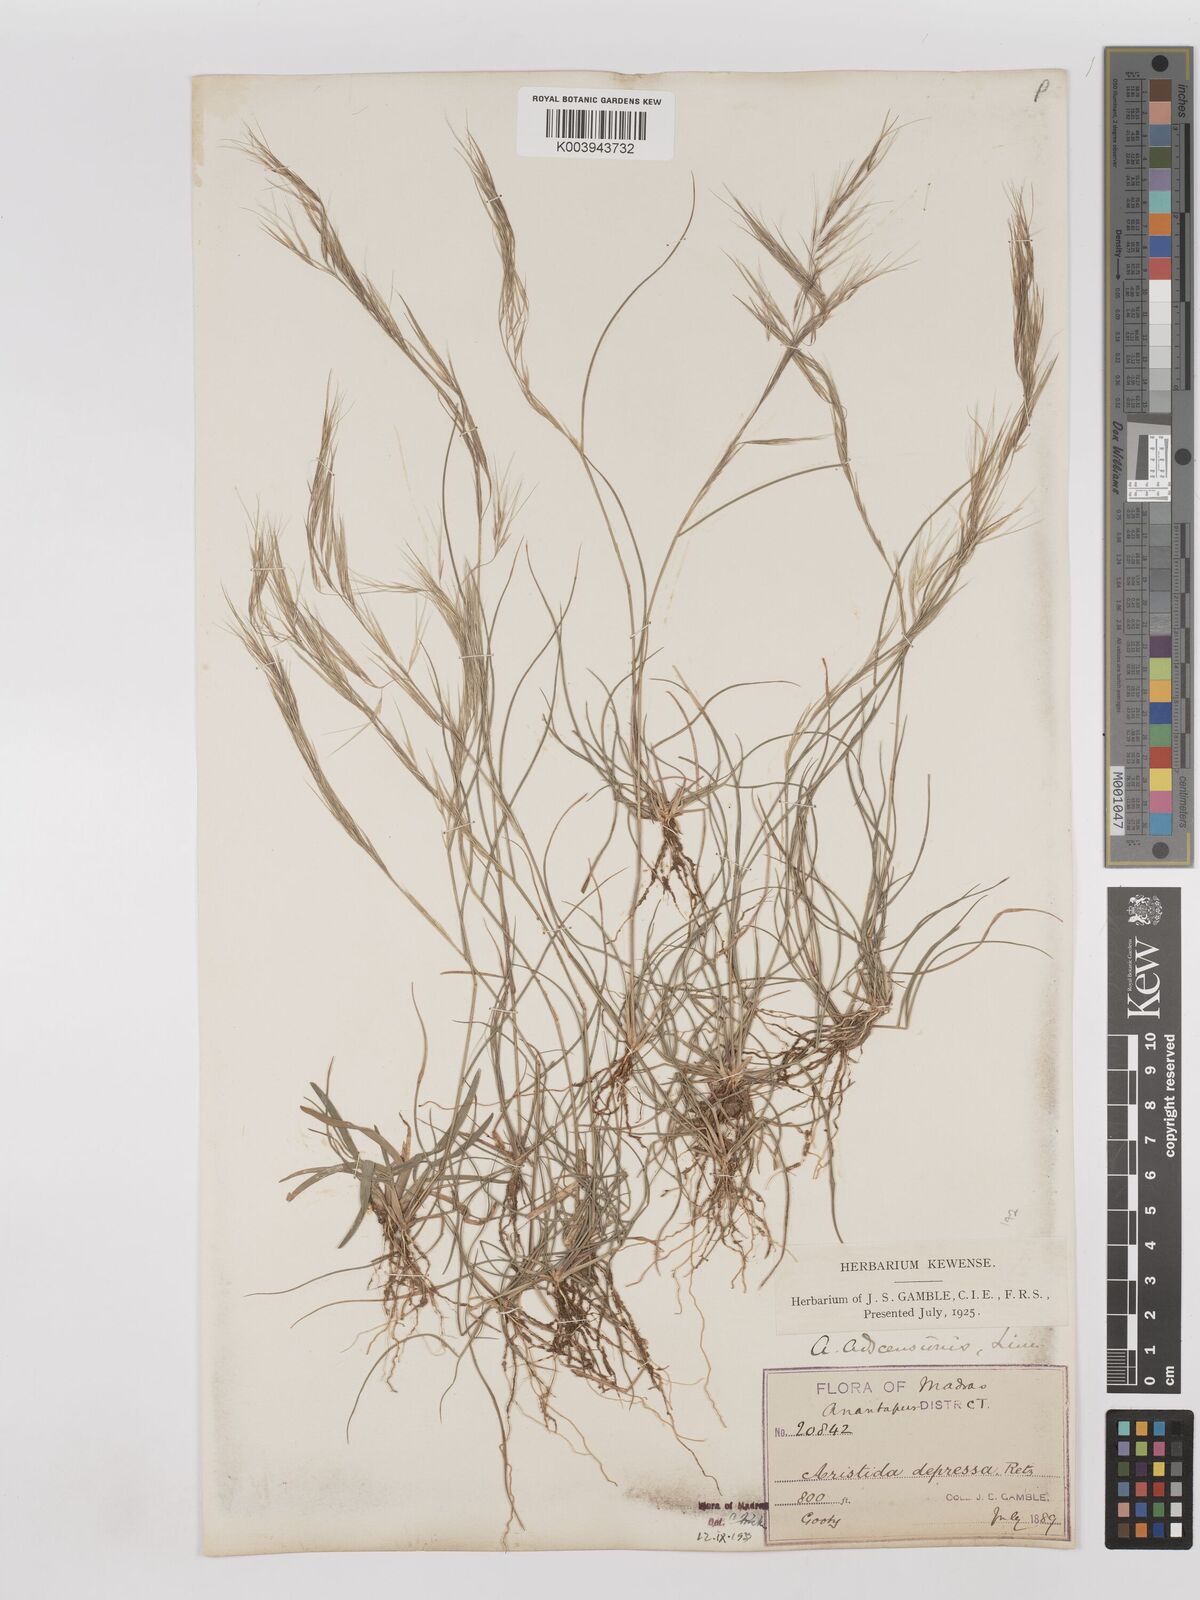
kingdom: Plantae
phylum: Tracheophyta
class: Liliopsida
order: Poales
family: Poaceae
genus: Aristida
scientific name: Aristida adscensionis
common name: Sixweeks threeawn
